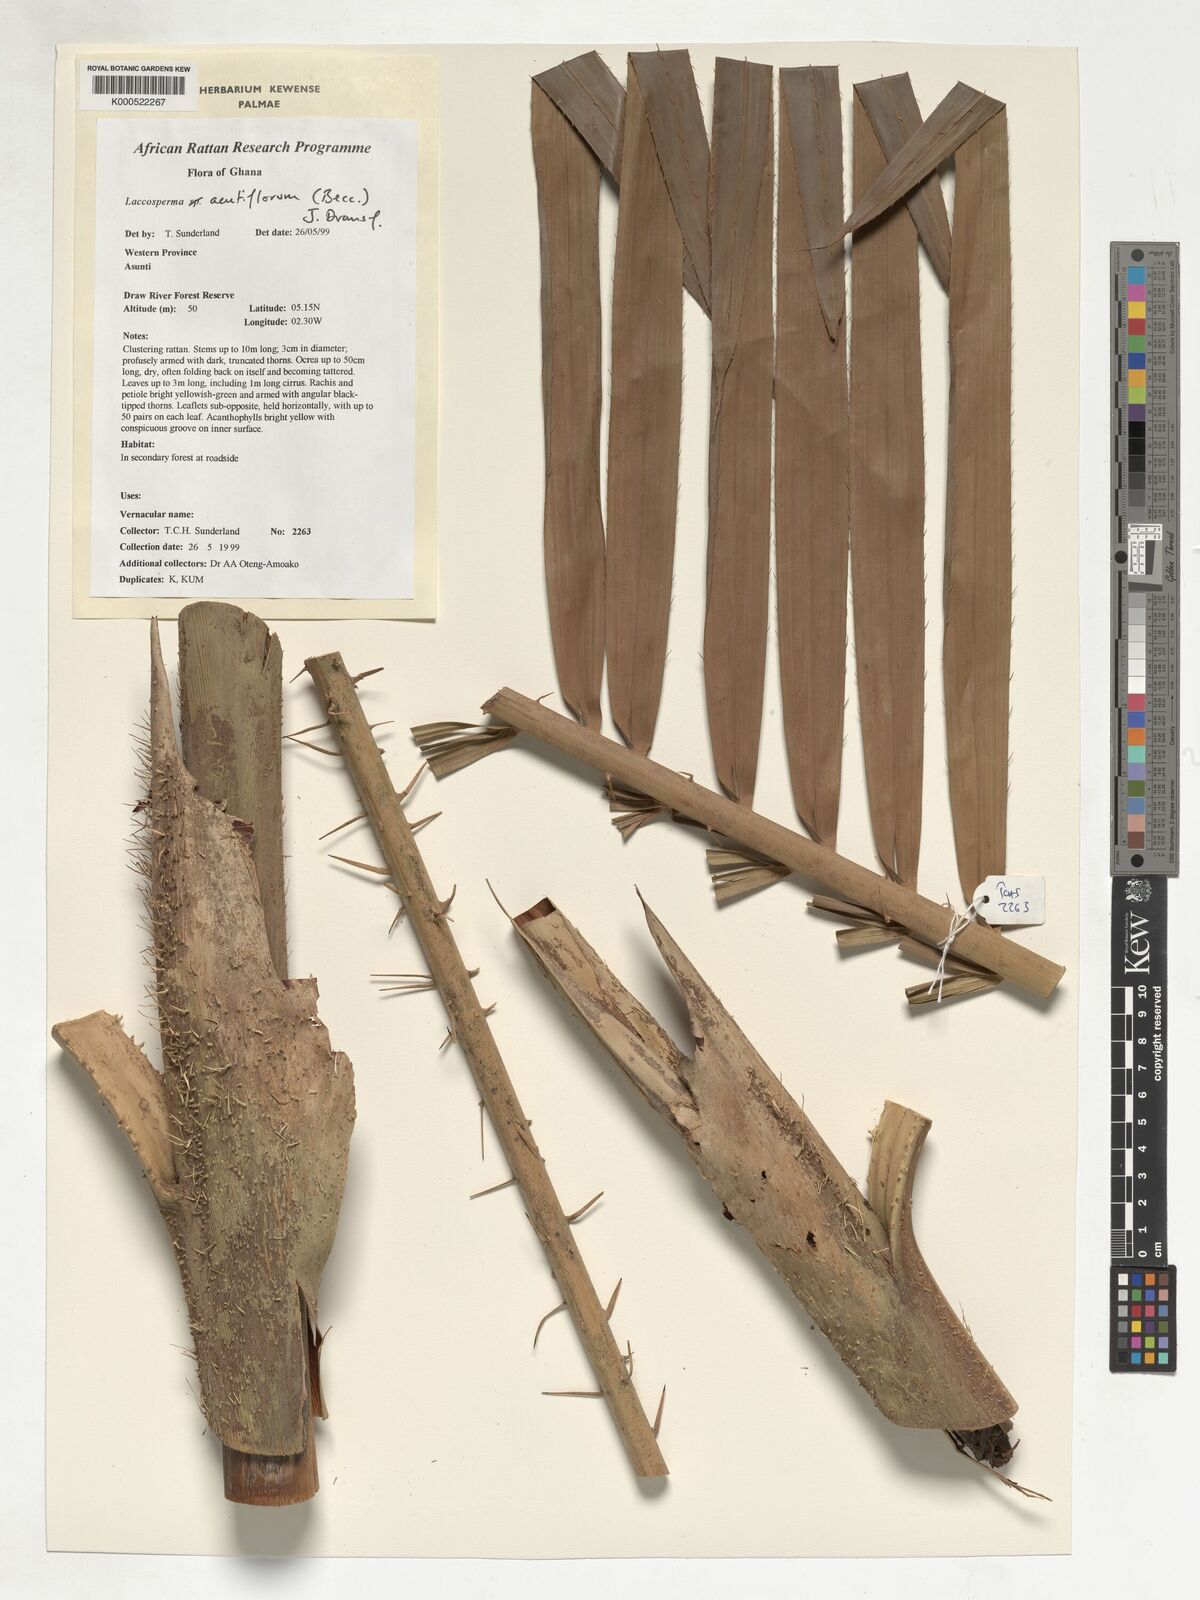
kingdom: Plantae
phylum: Tracheophyta
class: Liliopsida
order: Arecales
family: Arecaceae
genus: Laccosperma
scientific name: Laccosperma acutiflorum
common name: Rattan
